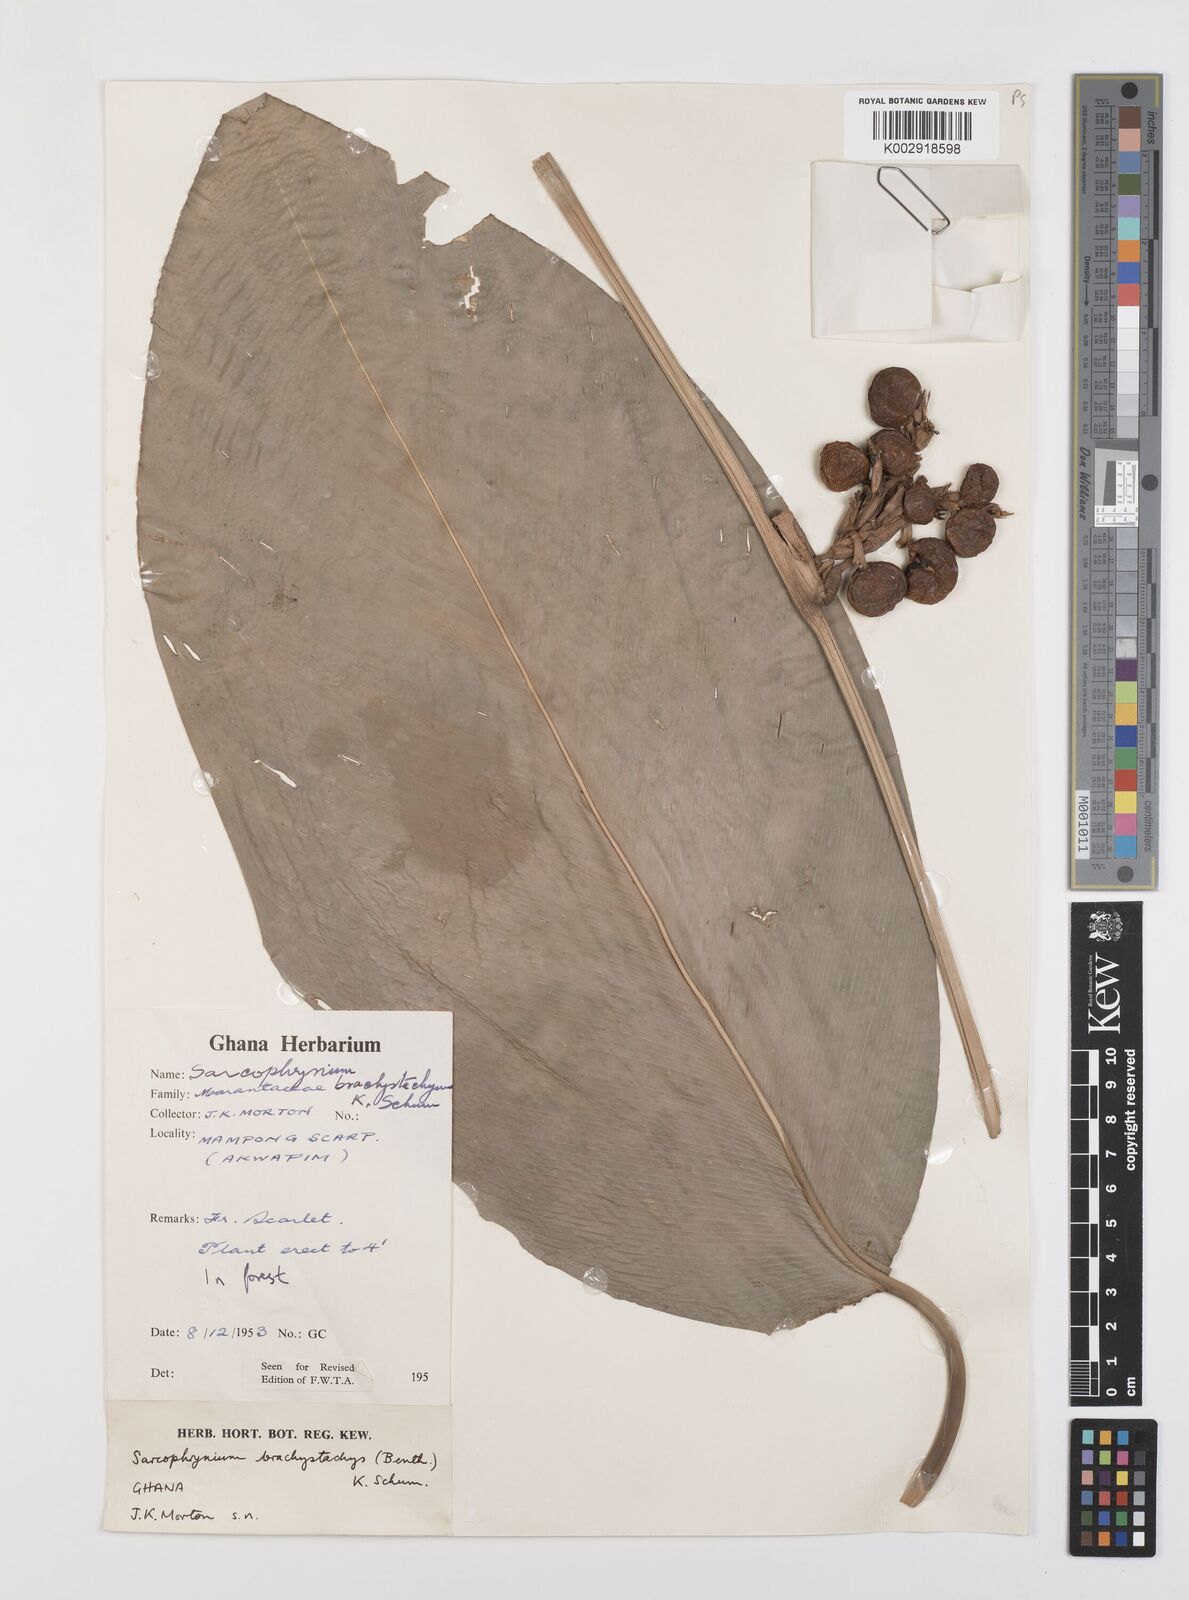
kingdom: Plantae
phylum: Tracheophyta
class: Liliopsida
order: Zingiberales
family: Marantaceae
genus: Sarcophrynium
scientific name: Sarcophrynium brachystachyum
